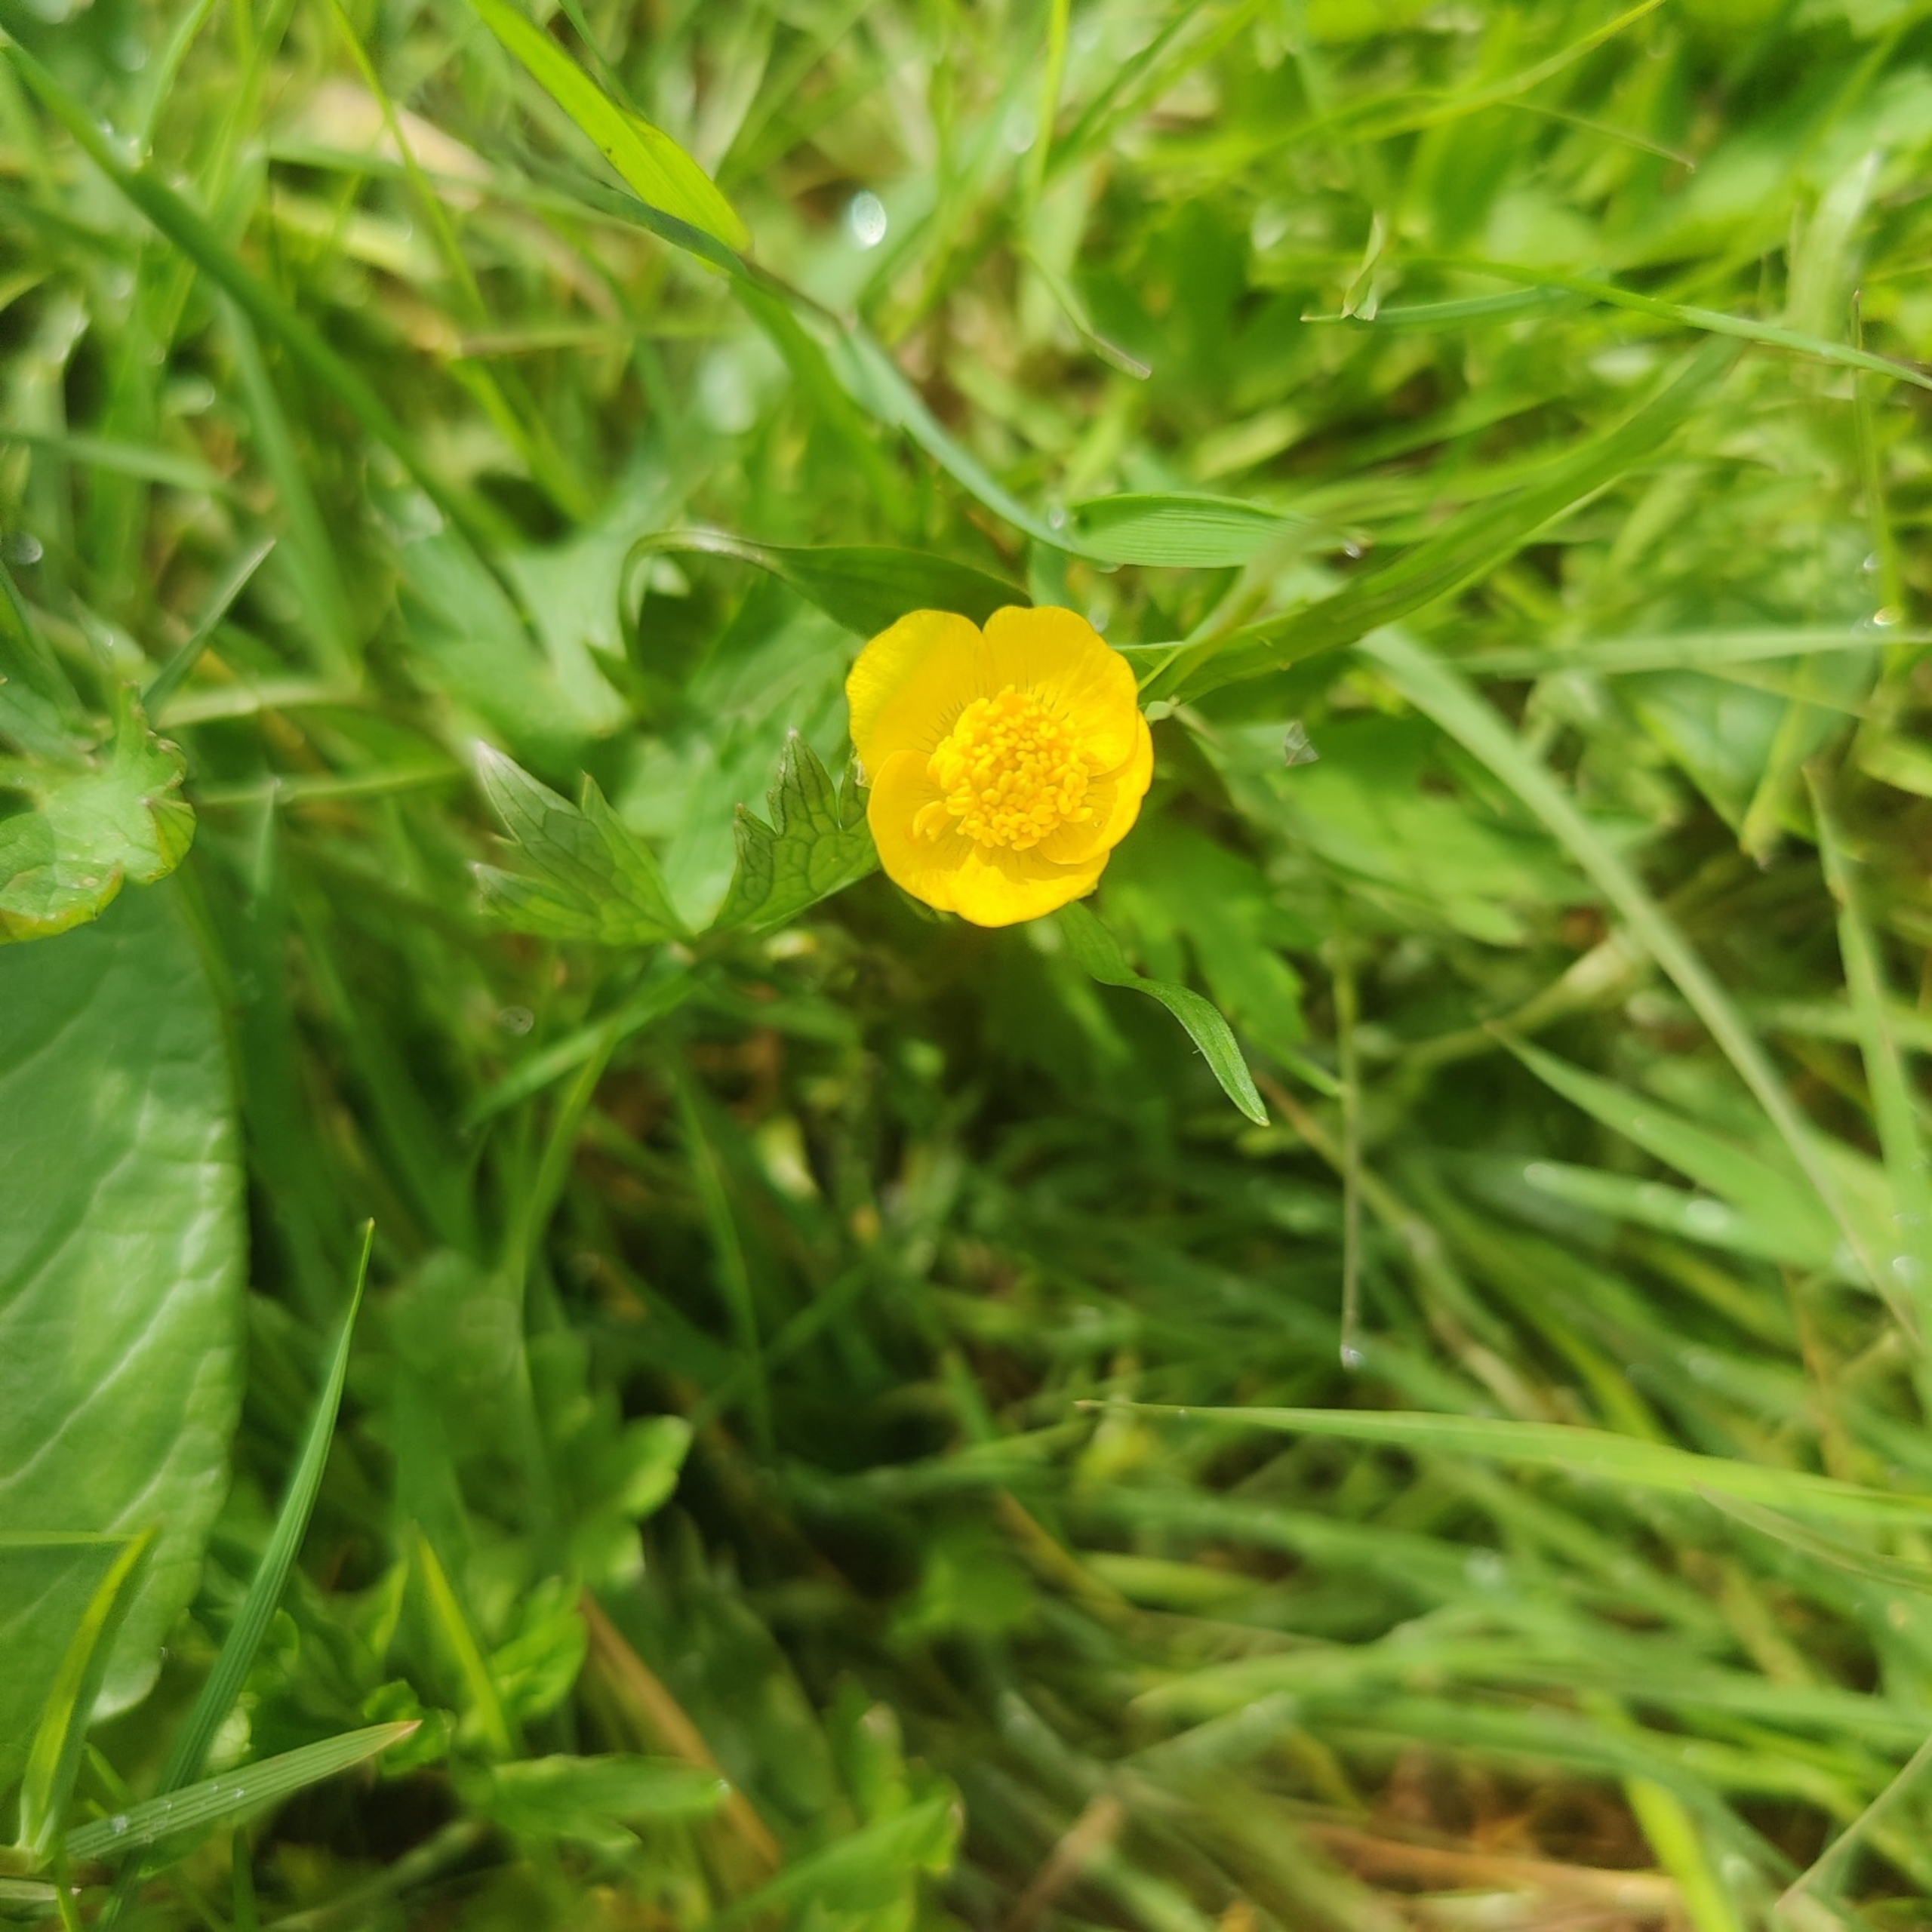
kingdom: Plantae
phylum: Tracheophyta
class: Magnoliopsida
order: Ranunculales
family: Ranunculaceae
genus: Ranunculus
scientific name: Ranunculus
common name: Ranunkelslægten
